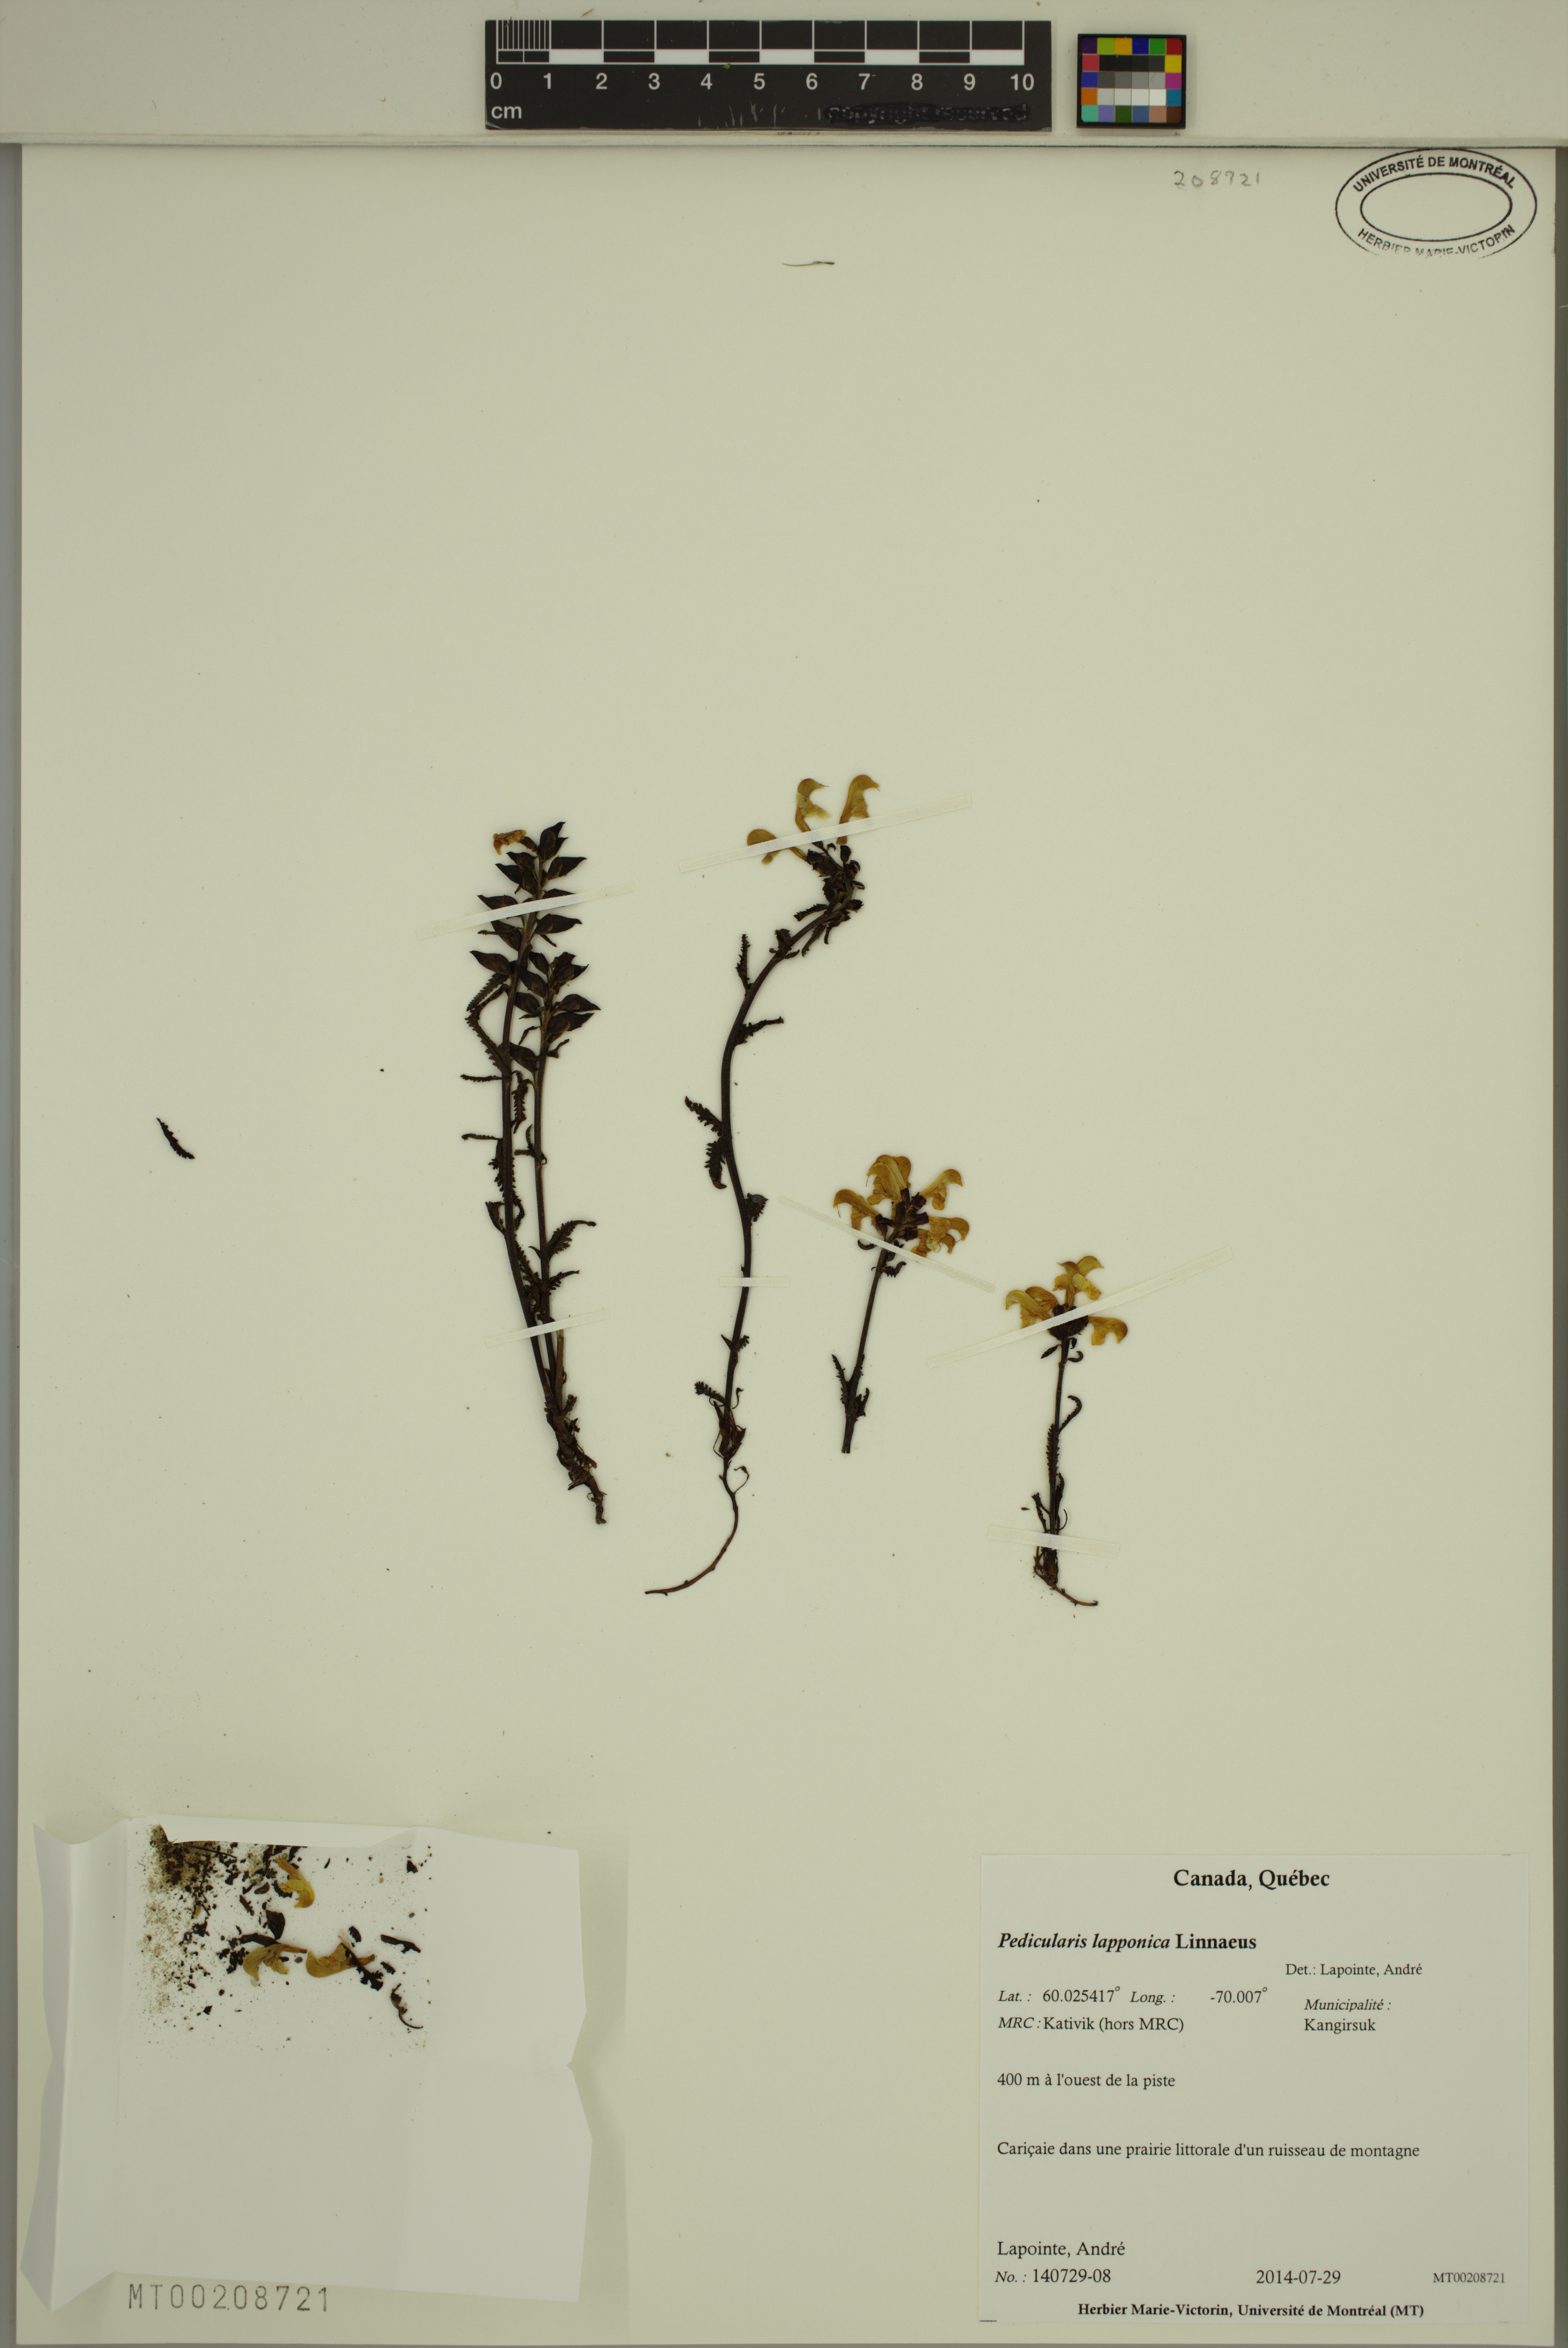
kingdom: Plantae
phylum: Tracheophyta
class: Magnoliopsida
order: Lamiales
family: Orobanchaceae
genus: Pedicularis
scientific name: Pedicularis lapponica
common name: Lapland lousewort
